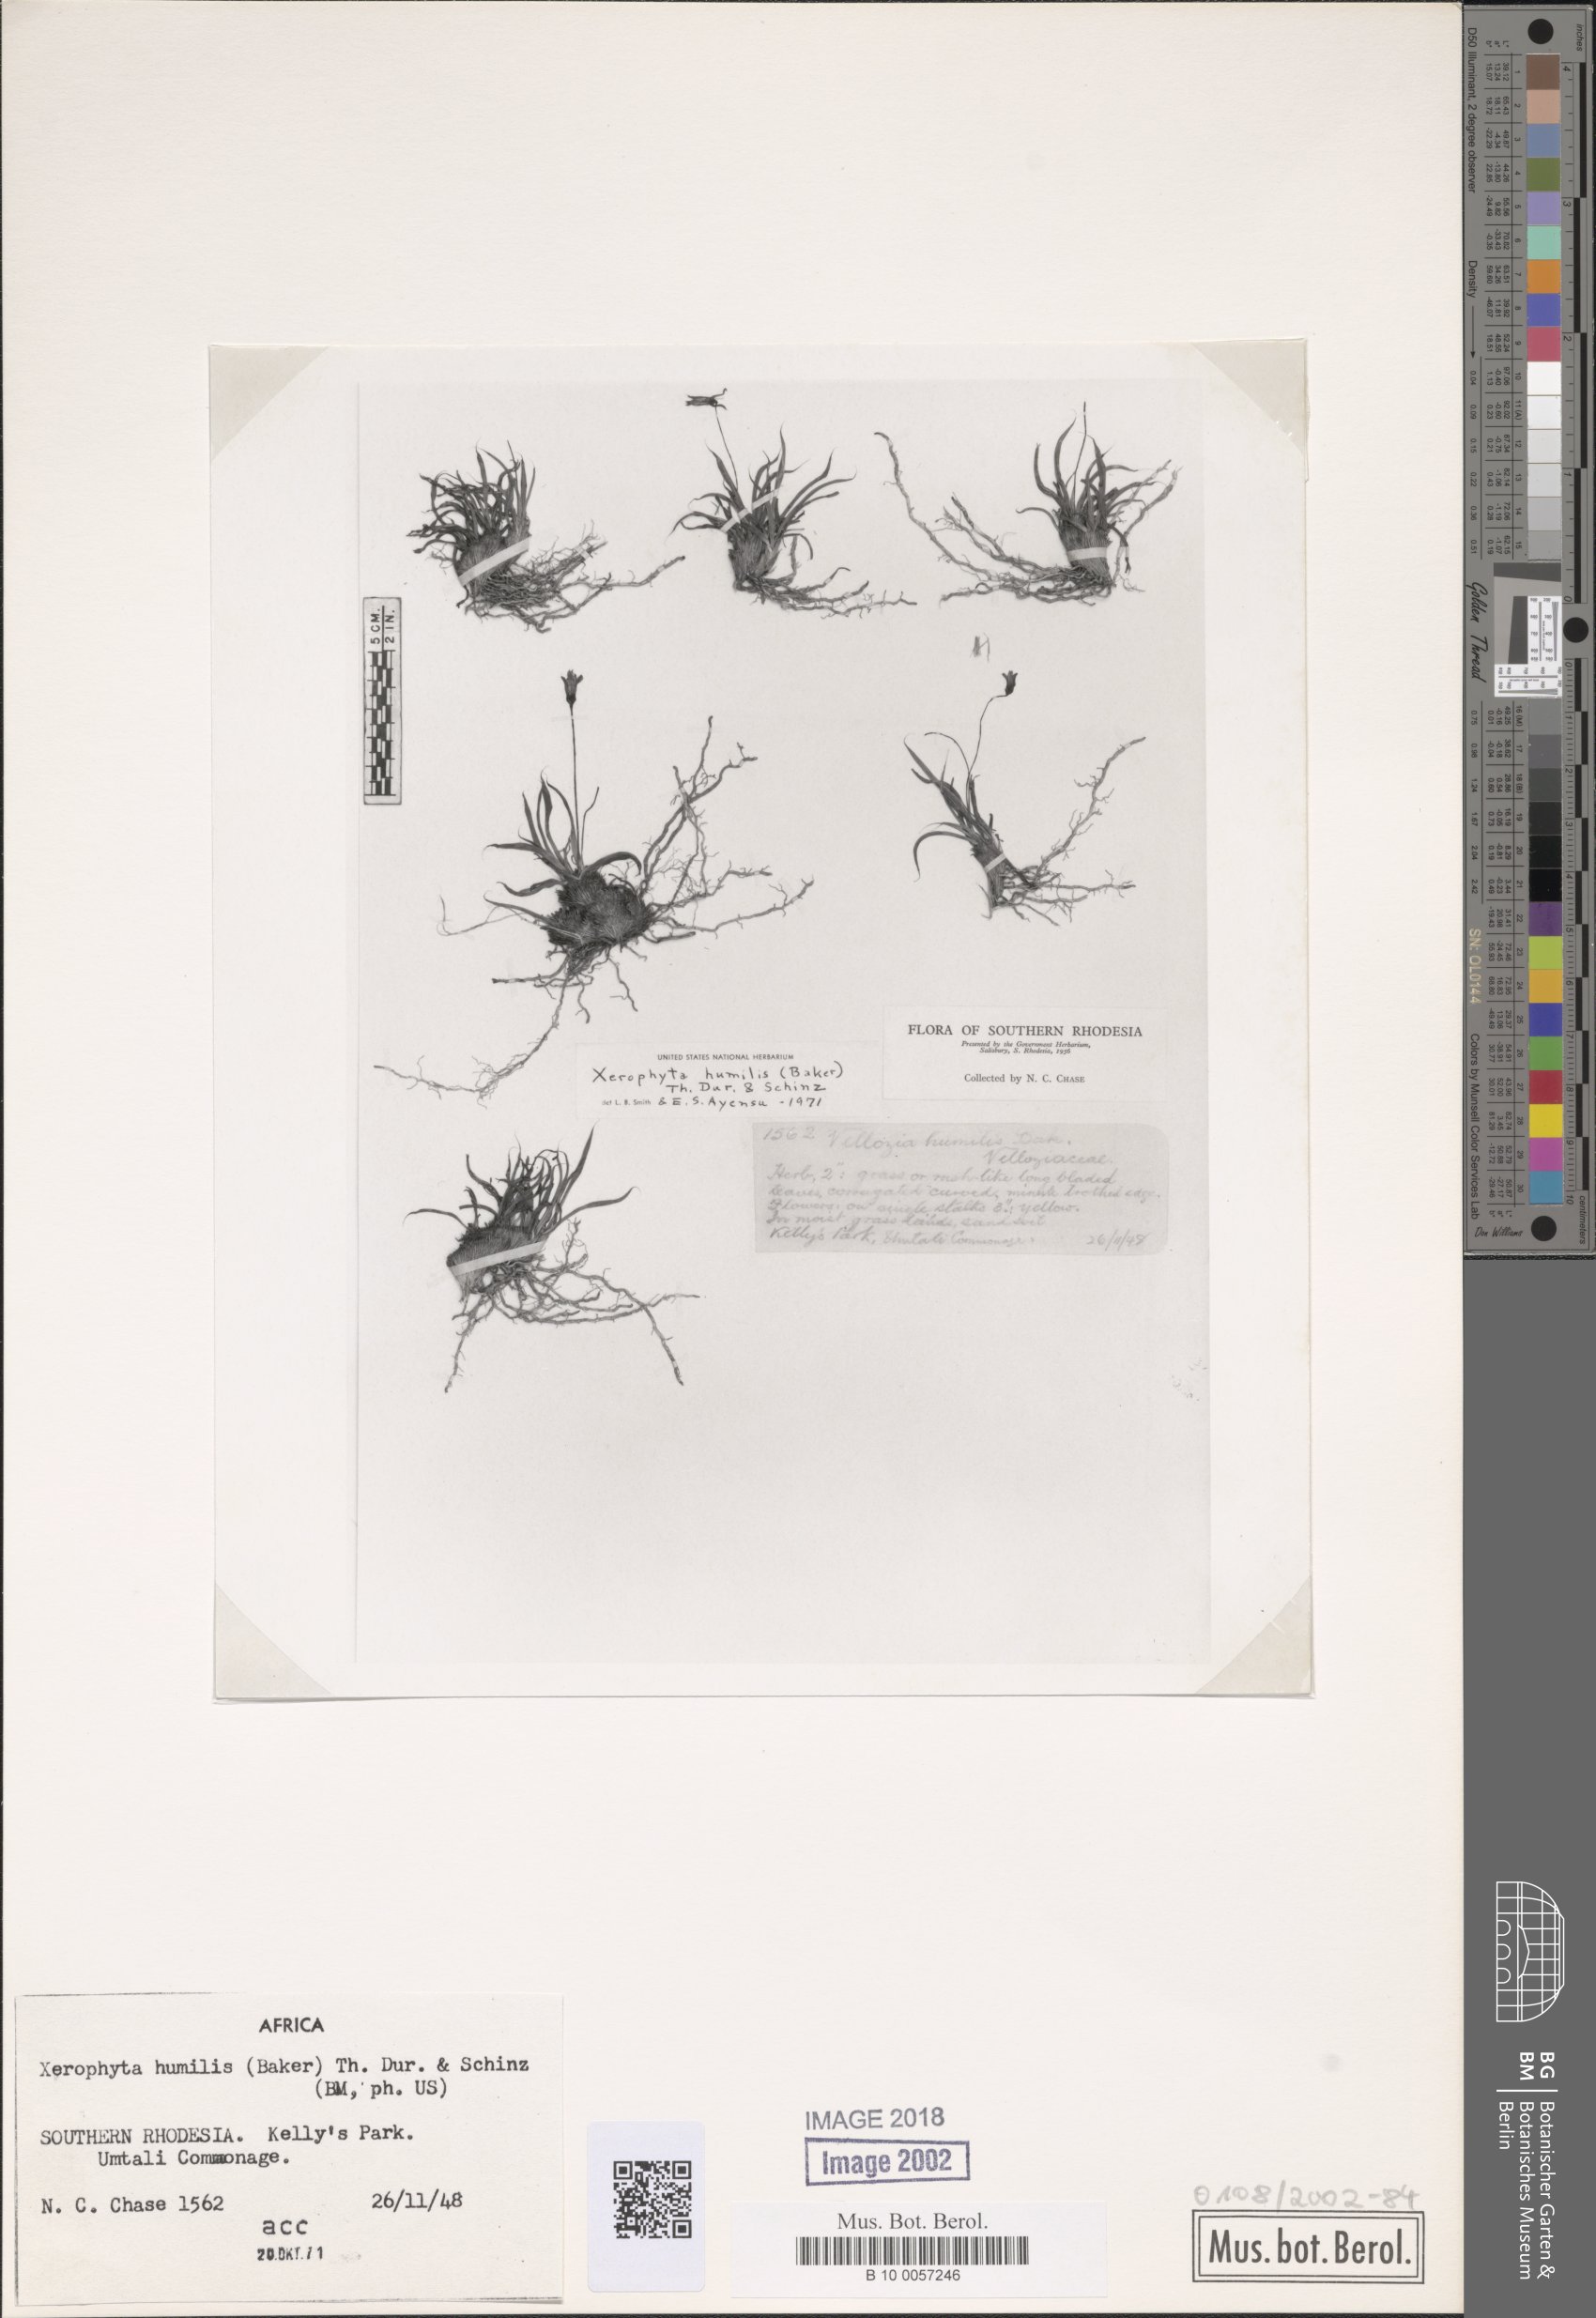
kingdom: Plantae
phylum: Tracheophyta
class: Liliopsida
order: Pandanales
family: Velloziaceae
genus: Xerophyta
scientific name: Xerophyta humilis
